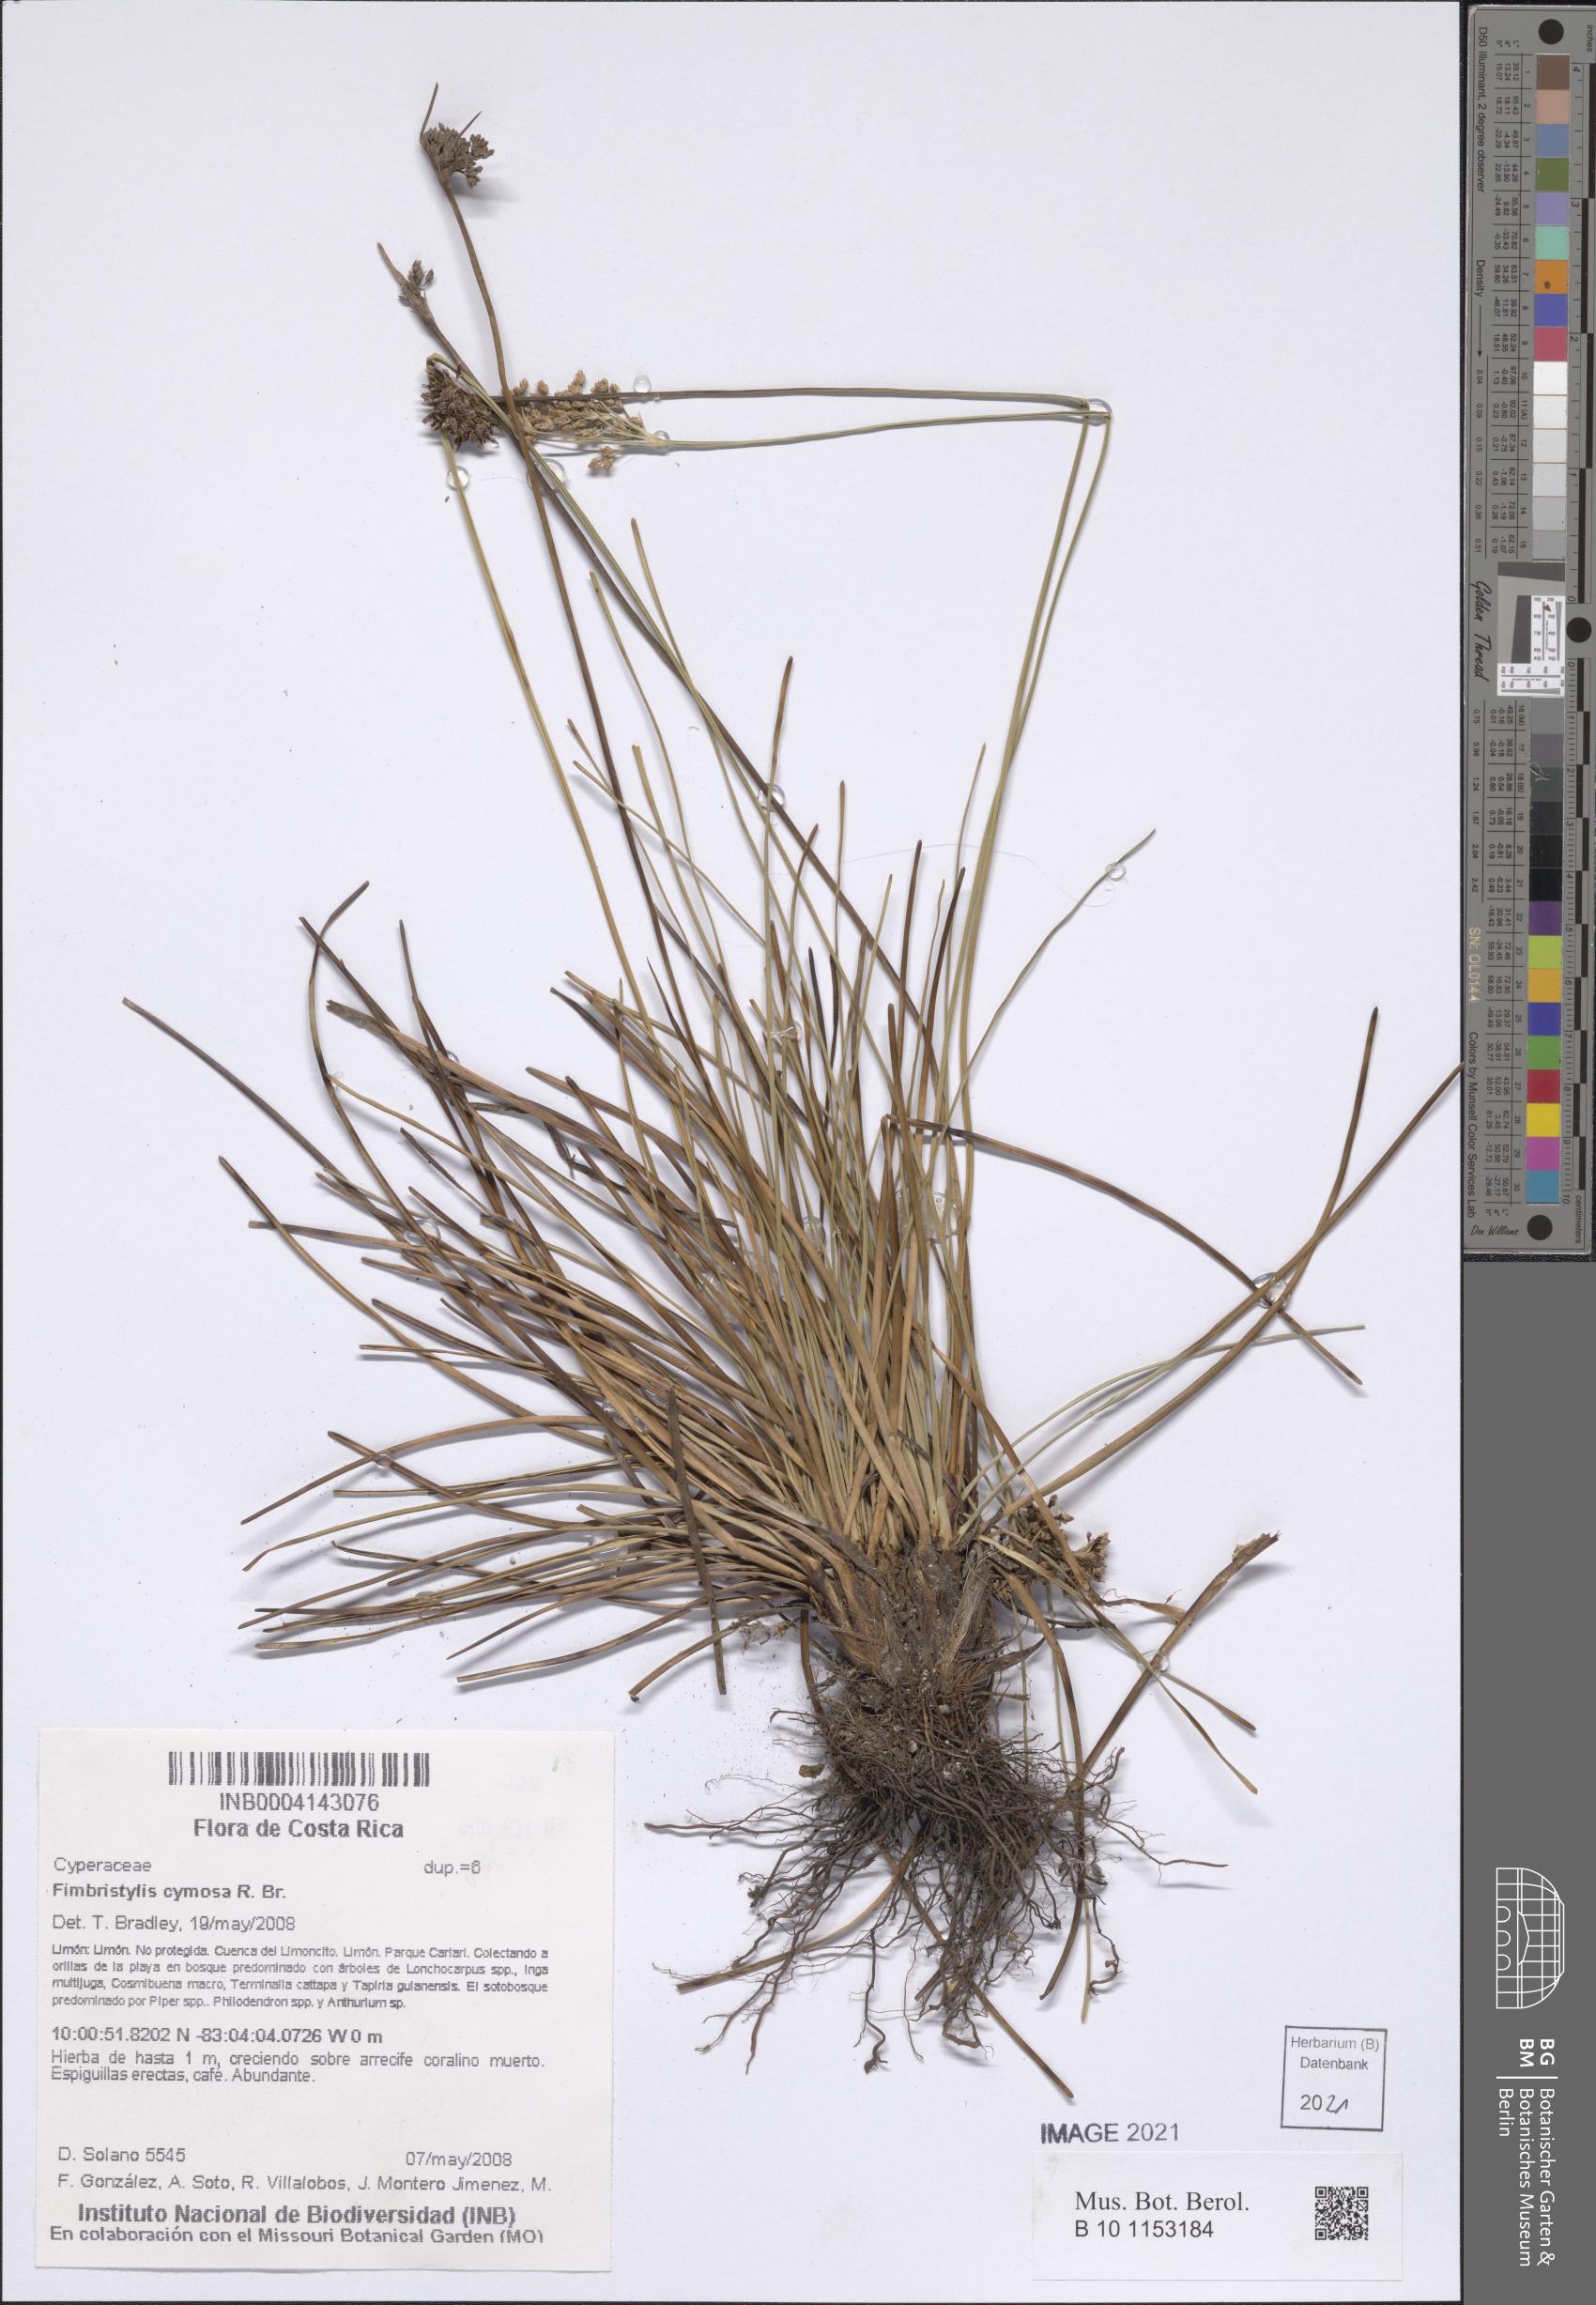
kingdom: Plantae
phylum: Tracheophyta
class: Liliopsida
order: Poales
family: Cyperaceae
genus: Fimbristylis
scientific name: Fimbristylis cymosa
